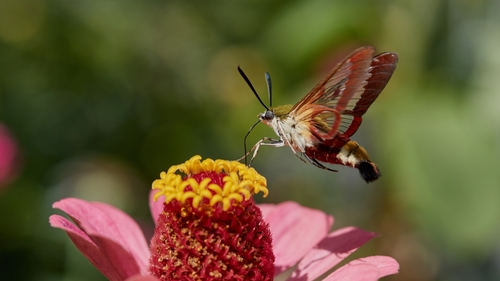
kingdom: Animalia
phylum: Arthropoda
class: Insecta
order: Lepidoptera
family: Sphingidae
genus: Hemaris
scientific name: Hemaris fuciformis
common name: Broad-bordered bee hawk-moth
